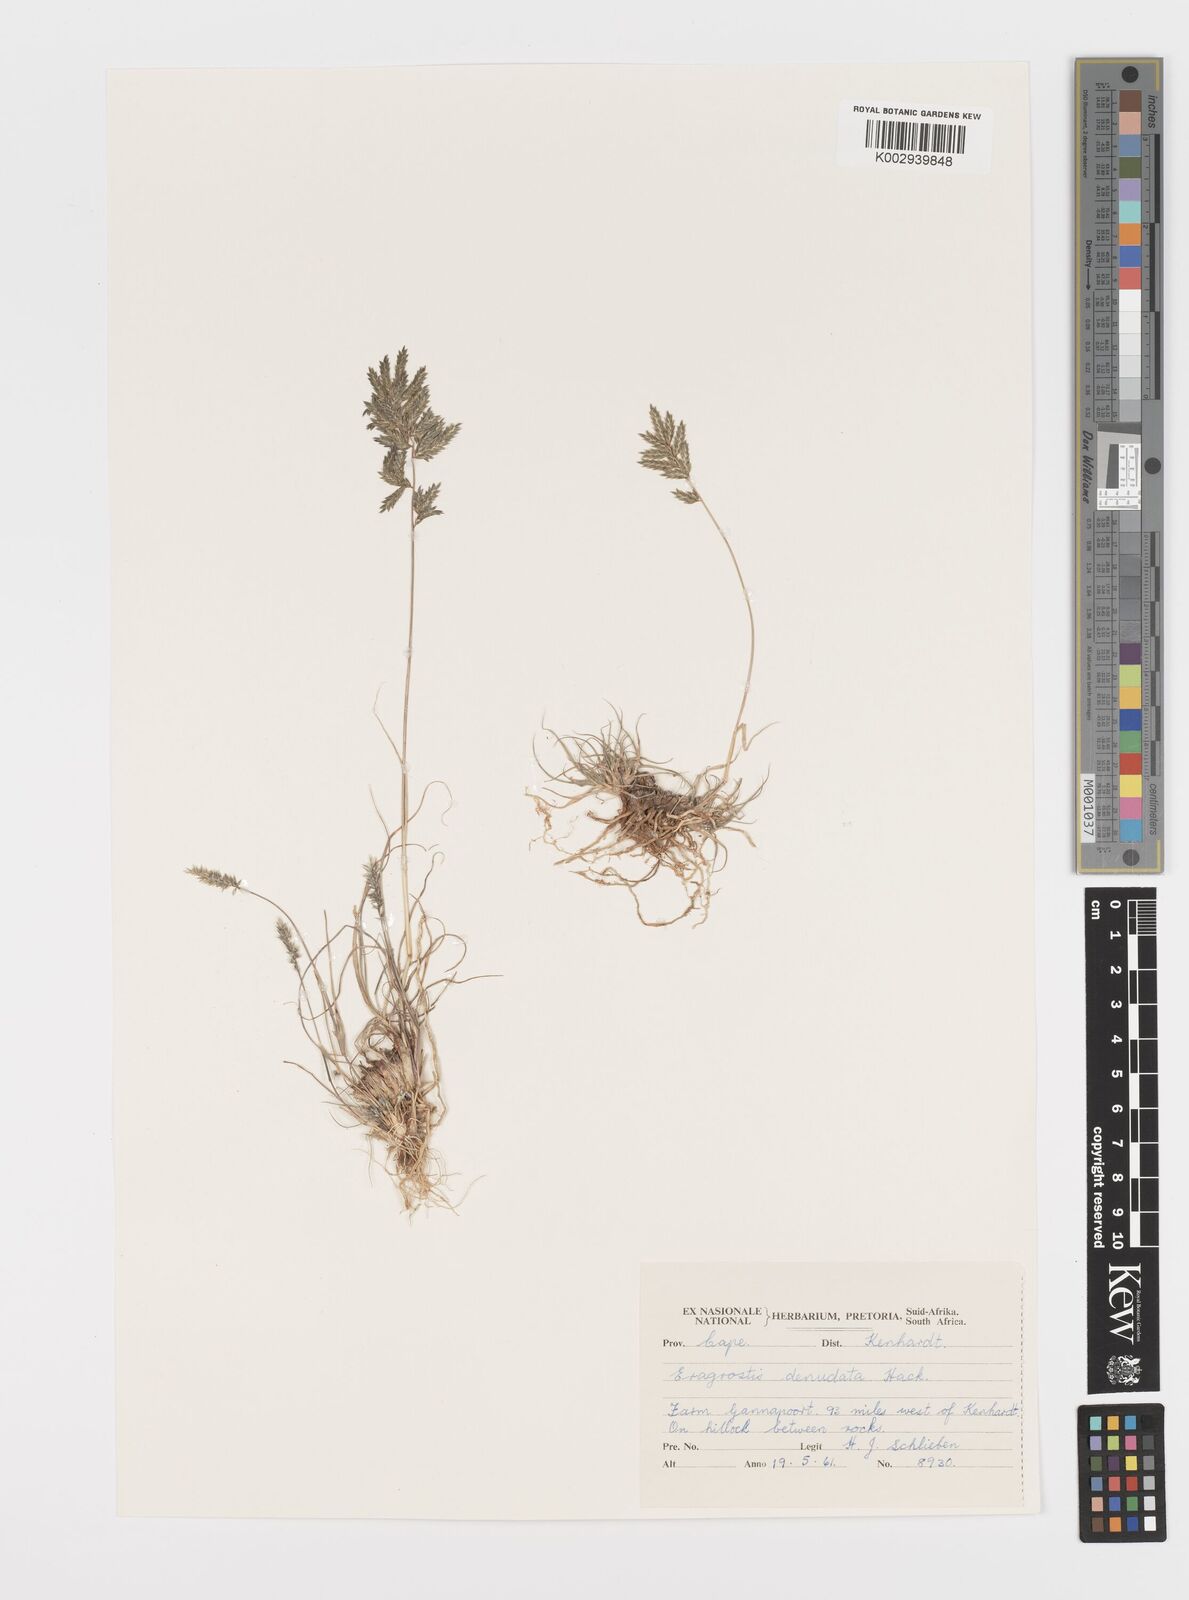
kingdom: Plantae
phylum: Tracheophyta
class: Liliopsida
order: Poales
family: Poaceae
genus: Eragrostis
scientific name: Eragrostis nindensis
